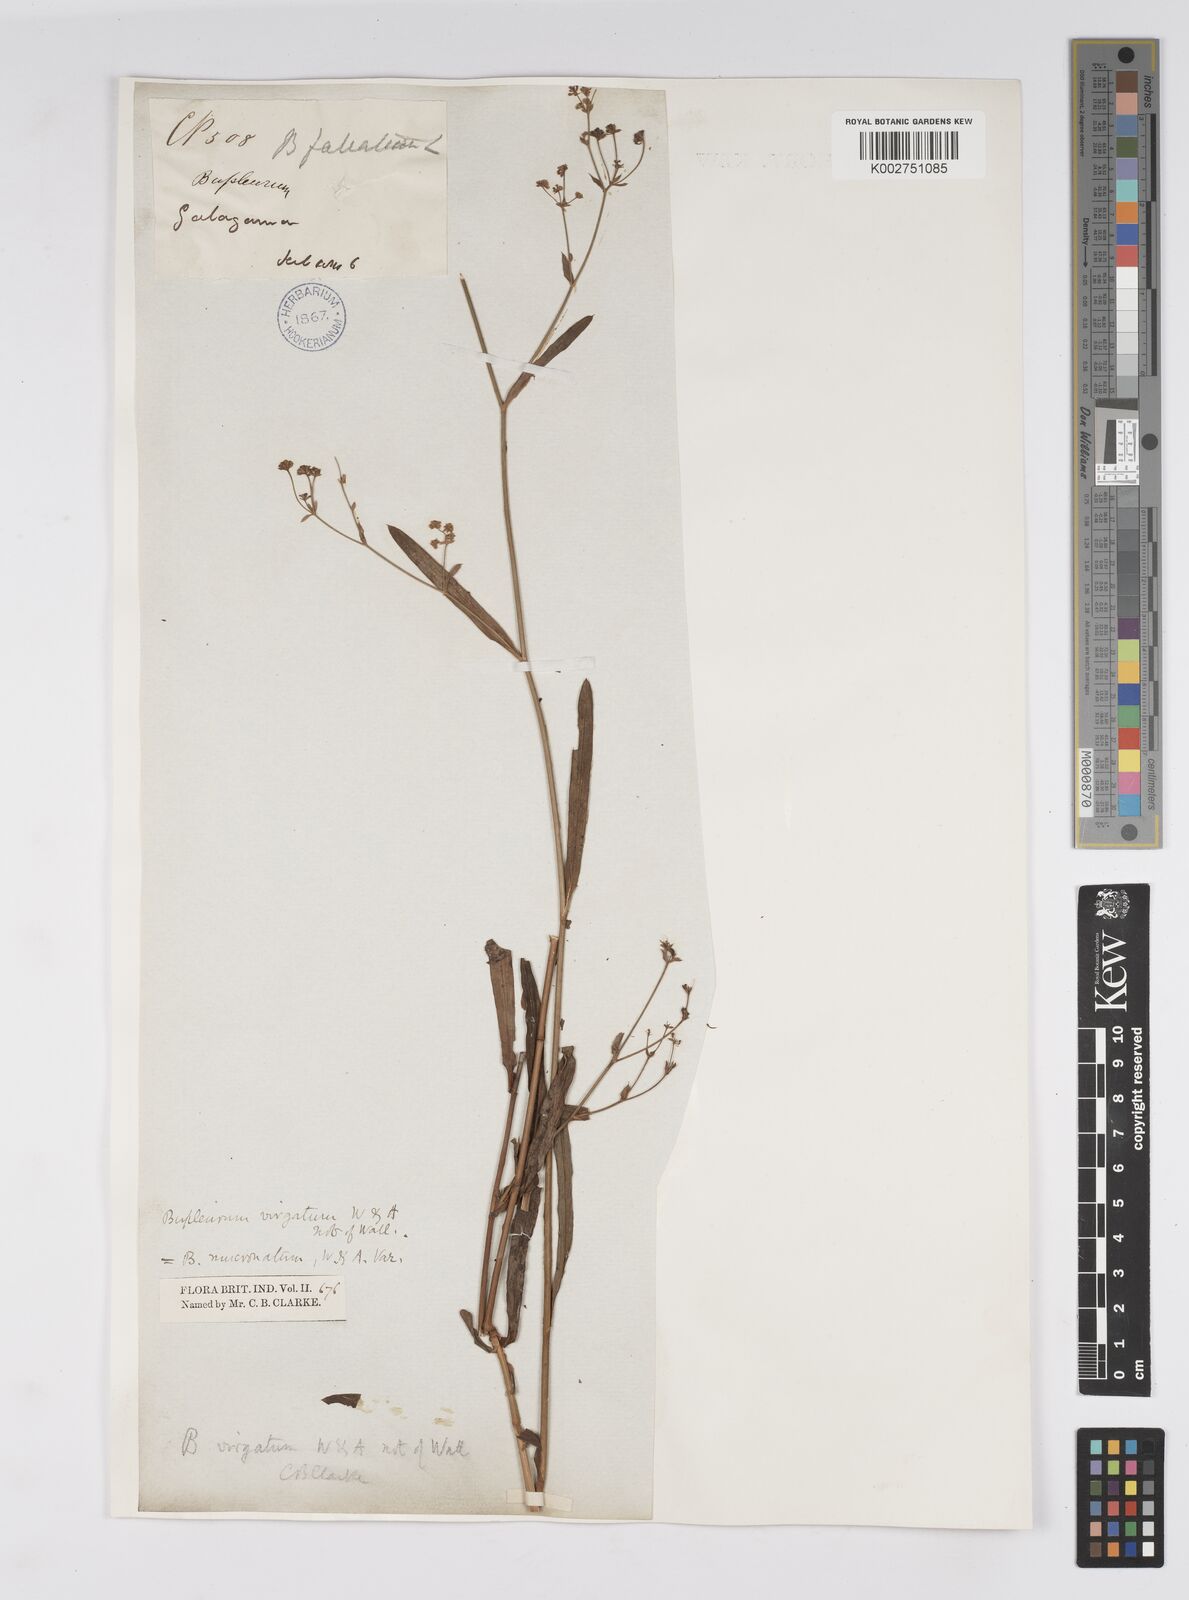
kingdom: Plantae
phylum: Tracheophyta
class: Magnoliopsida
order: Apiales
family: Apiaceae
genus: Bupleurum
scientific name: Bupleurum ramosissimum
